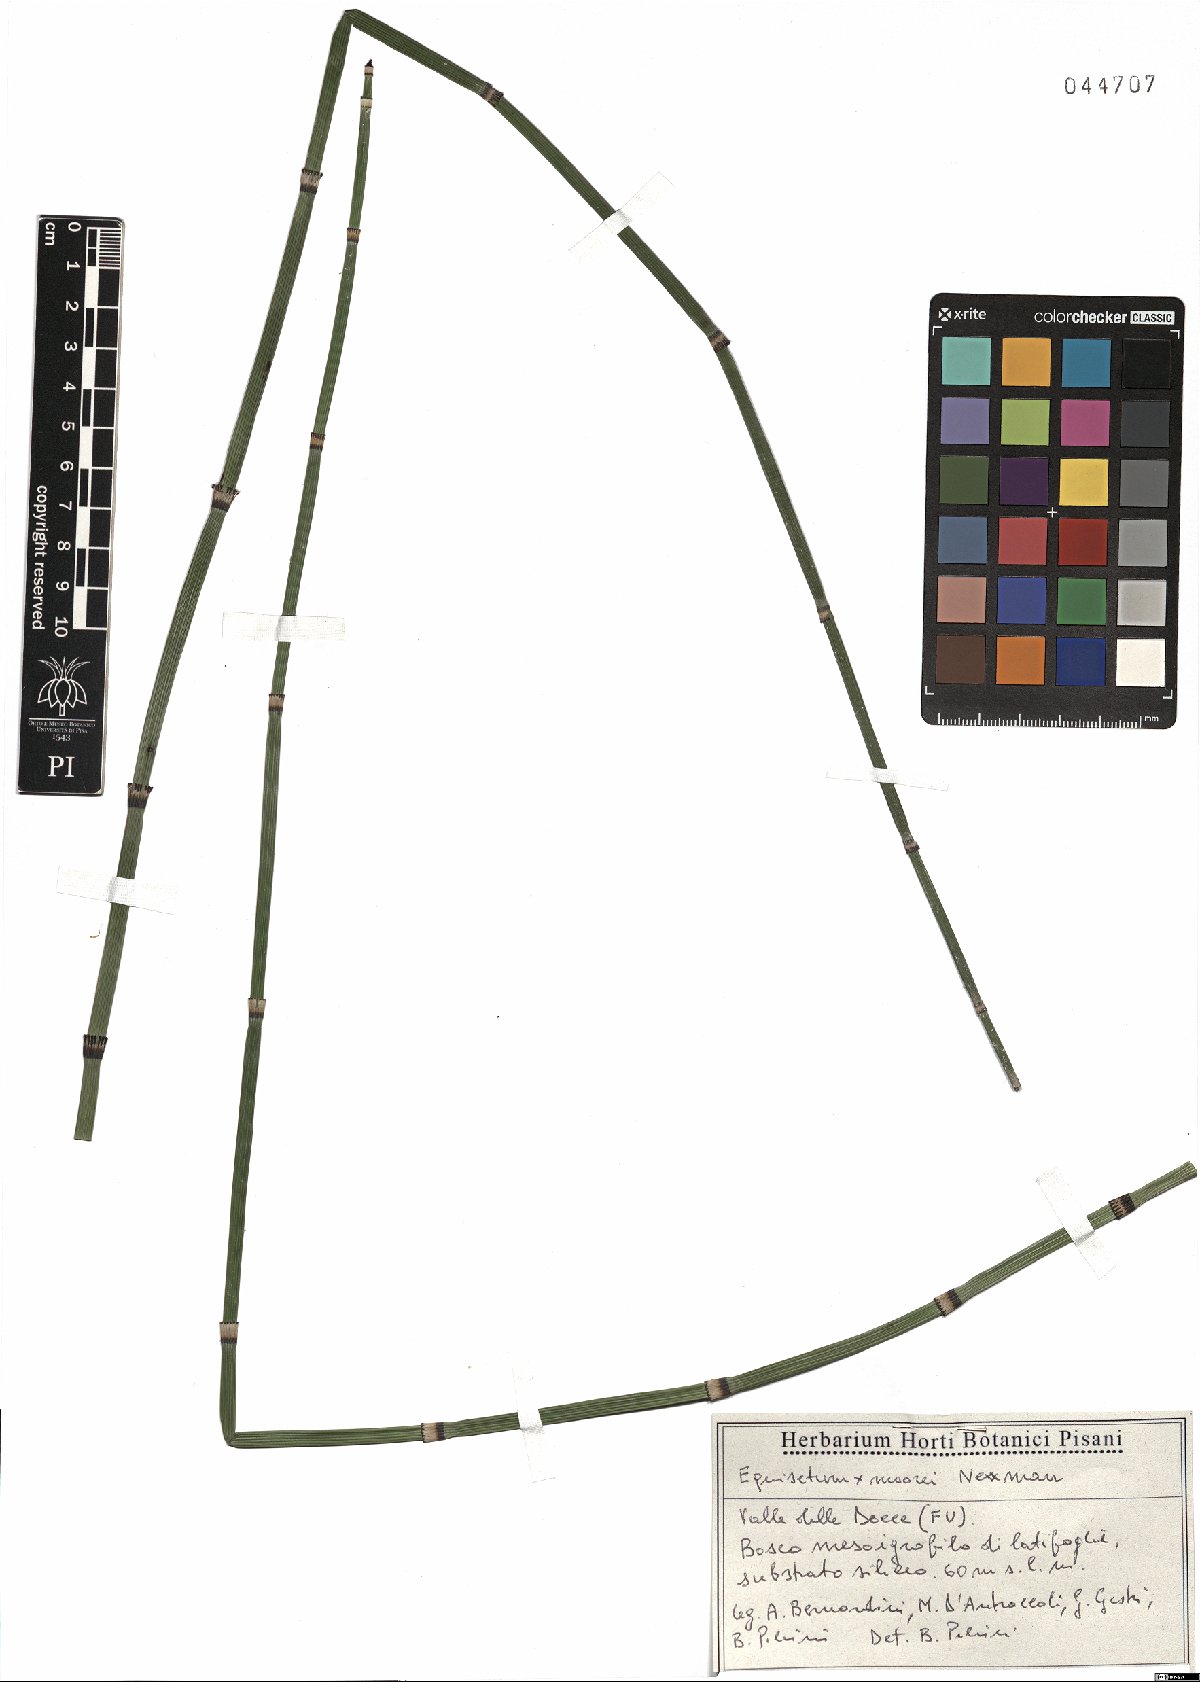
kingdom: Plantae
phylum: Tracheophyta
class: Polypodiopsida
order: Equisetales
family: Equisetaceae
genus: Equisetum
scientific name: Equisetum moorei
